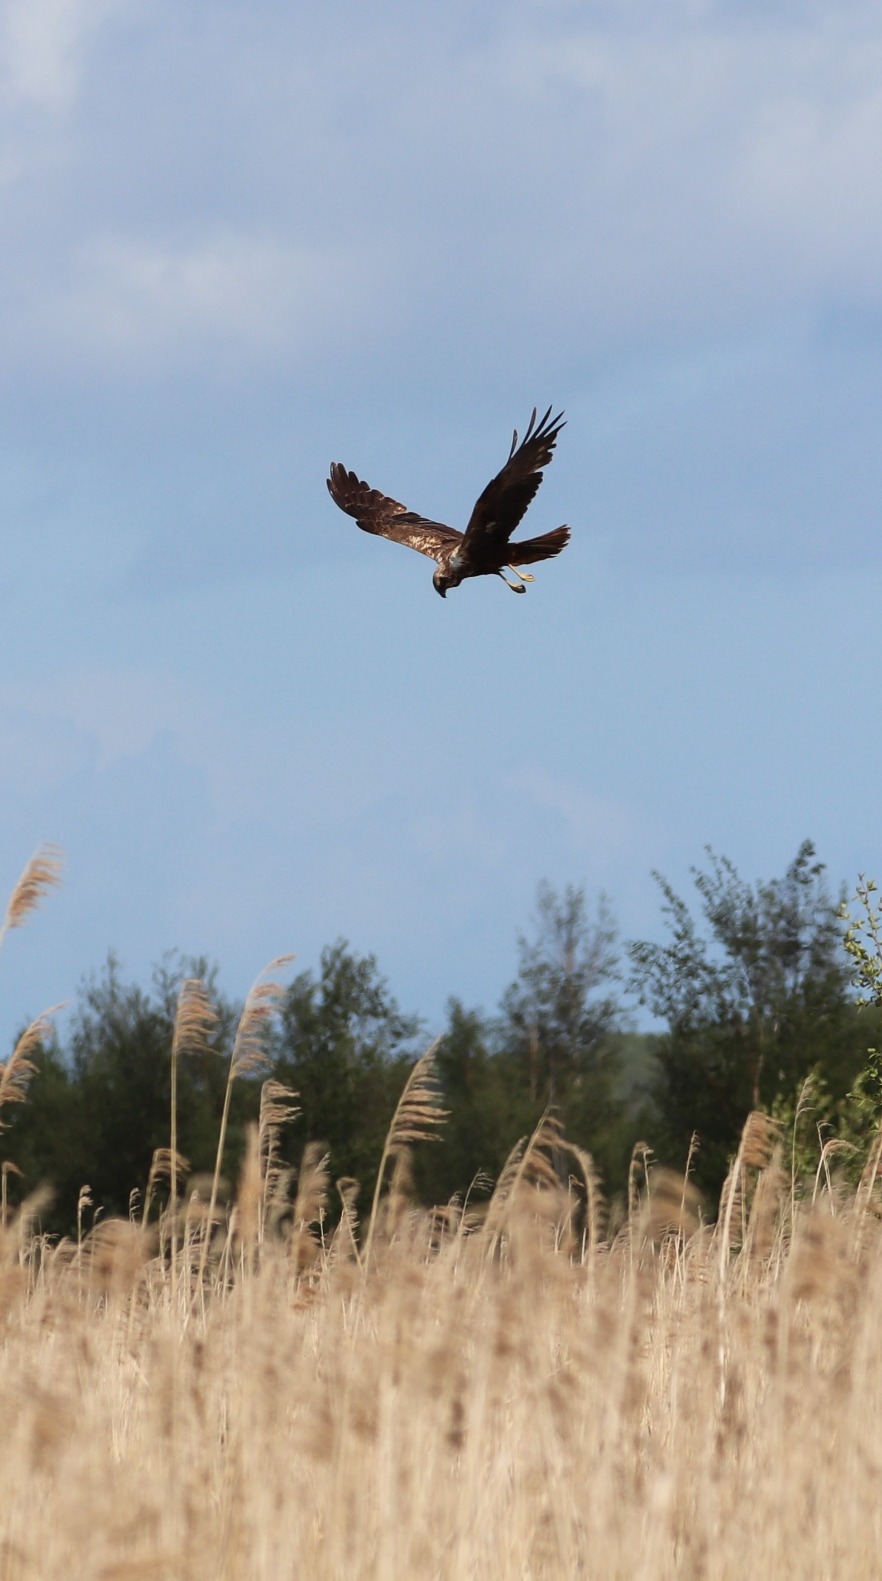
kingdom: Animalia
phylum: Chordata
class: Aves
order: Accipitriformes
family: Accipitridae
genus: Circus
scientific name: Circus aeruginosus
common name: Rørhøg
